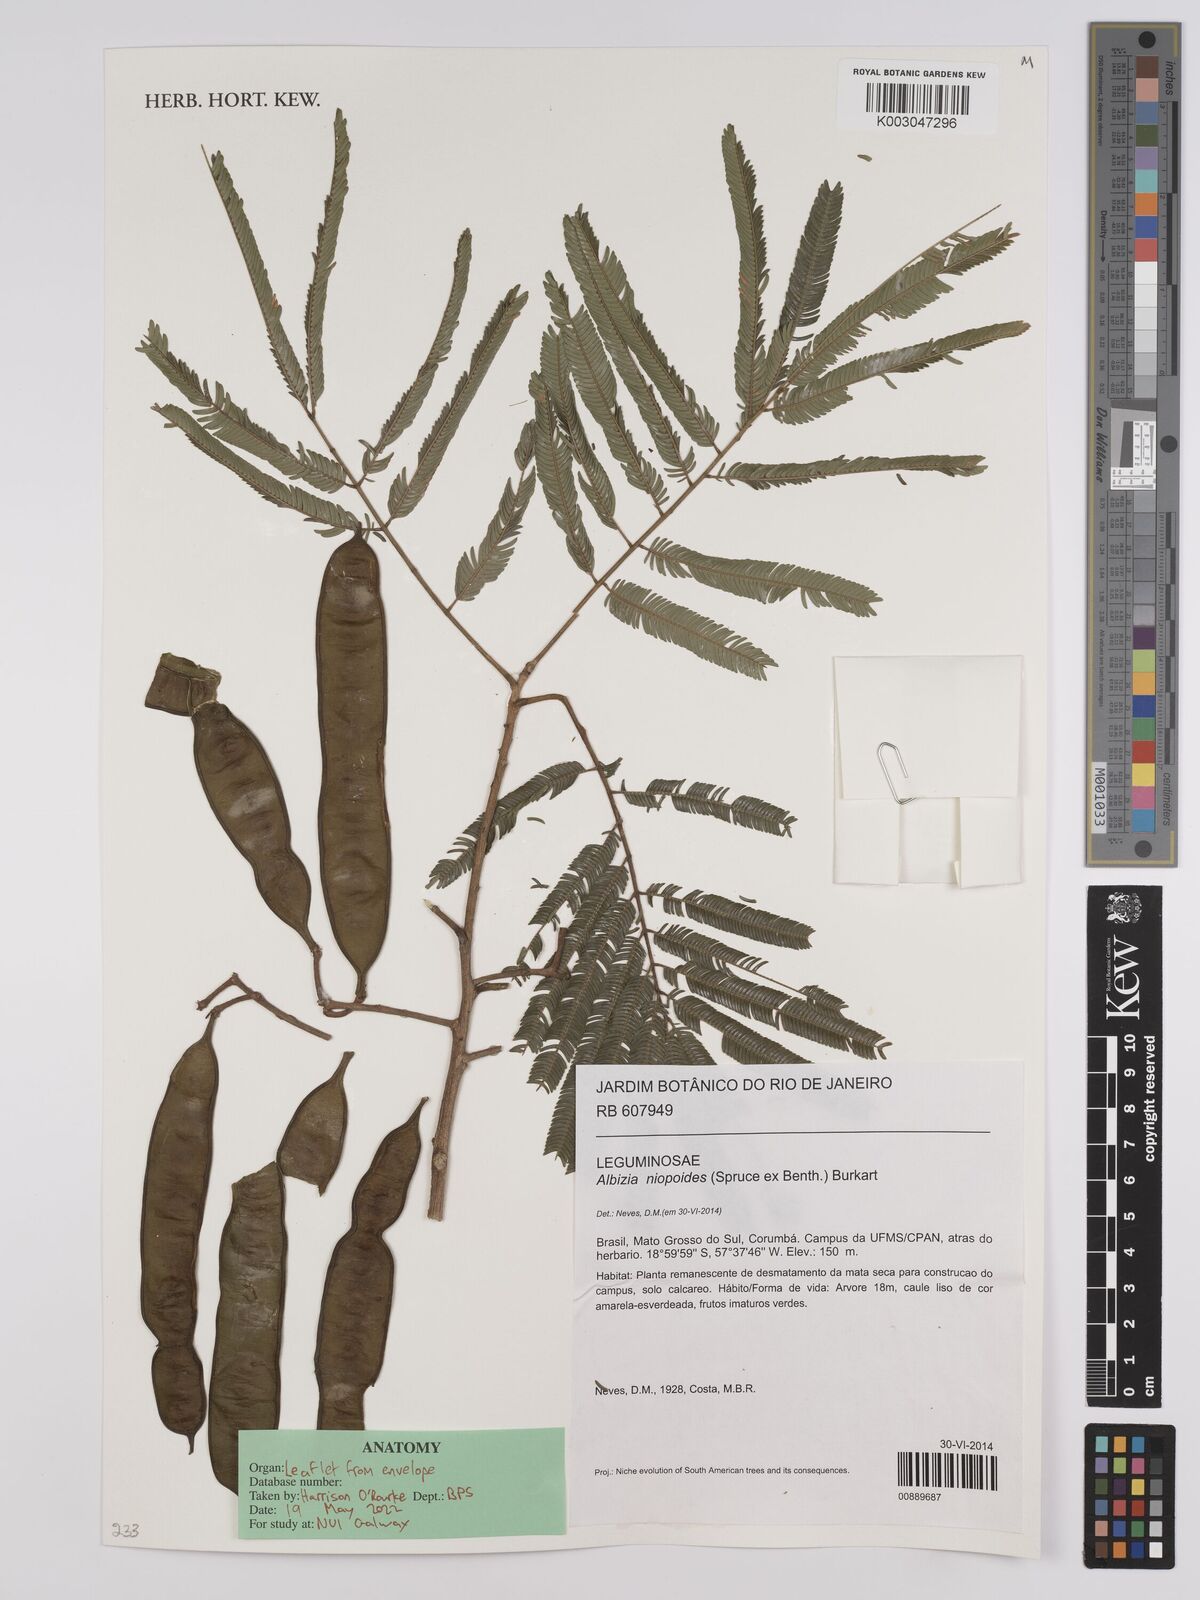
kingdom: Plantae
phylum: Tracheophyta
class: Magnoliopsida
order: Fabales
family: Fabaceae
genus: Albizia
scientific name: Albizia niopoides
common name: Silk tree
